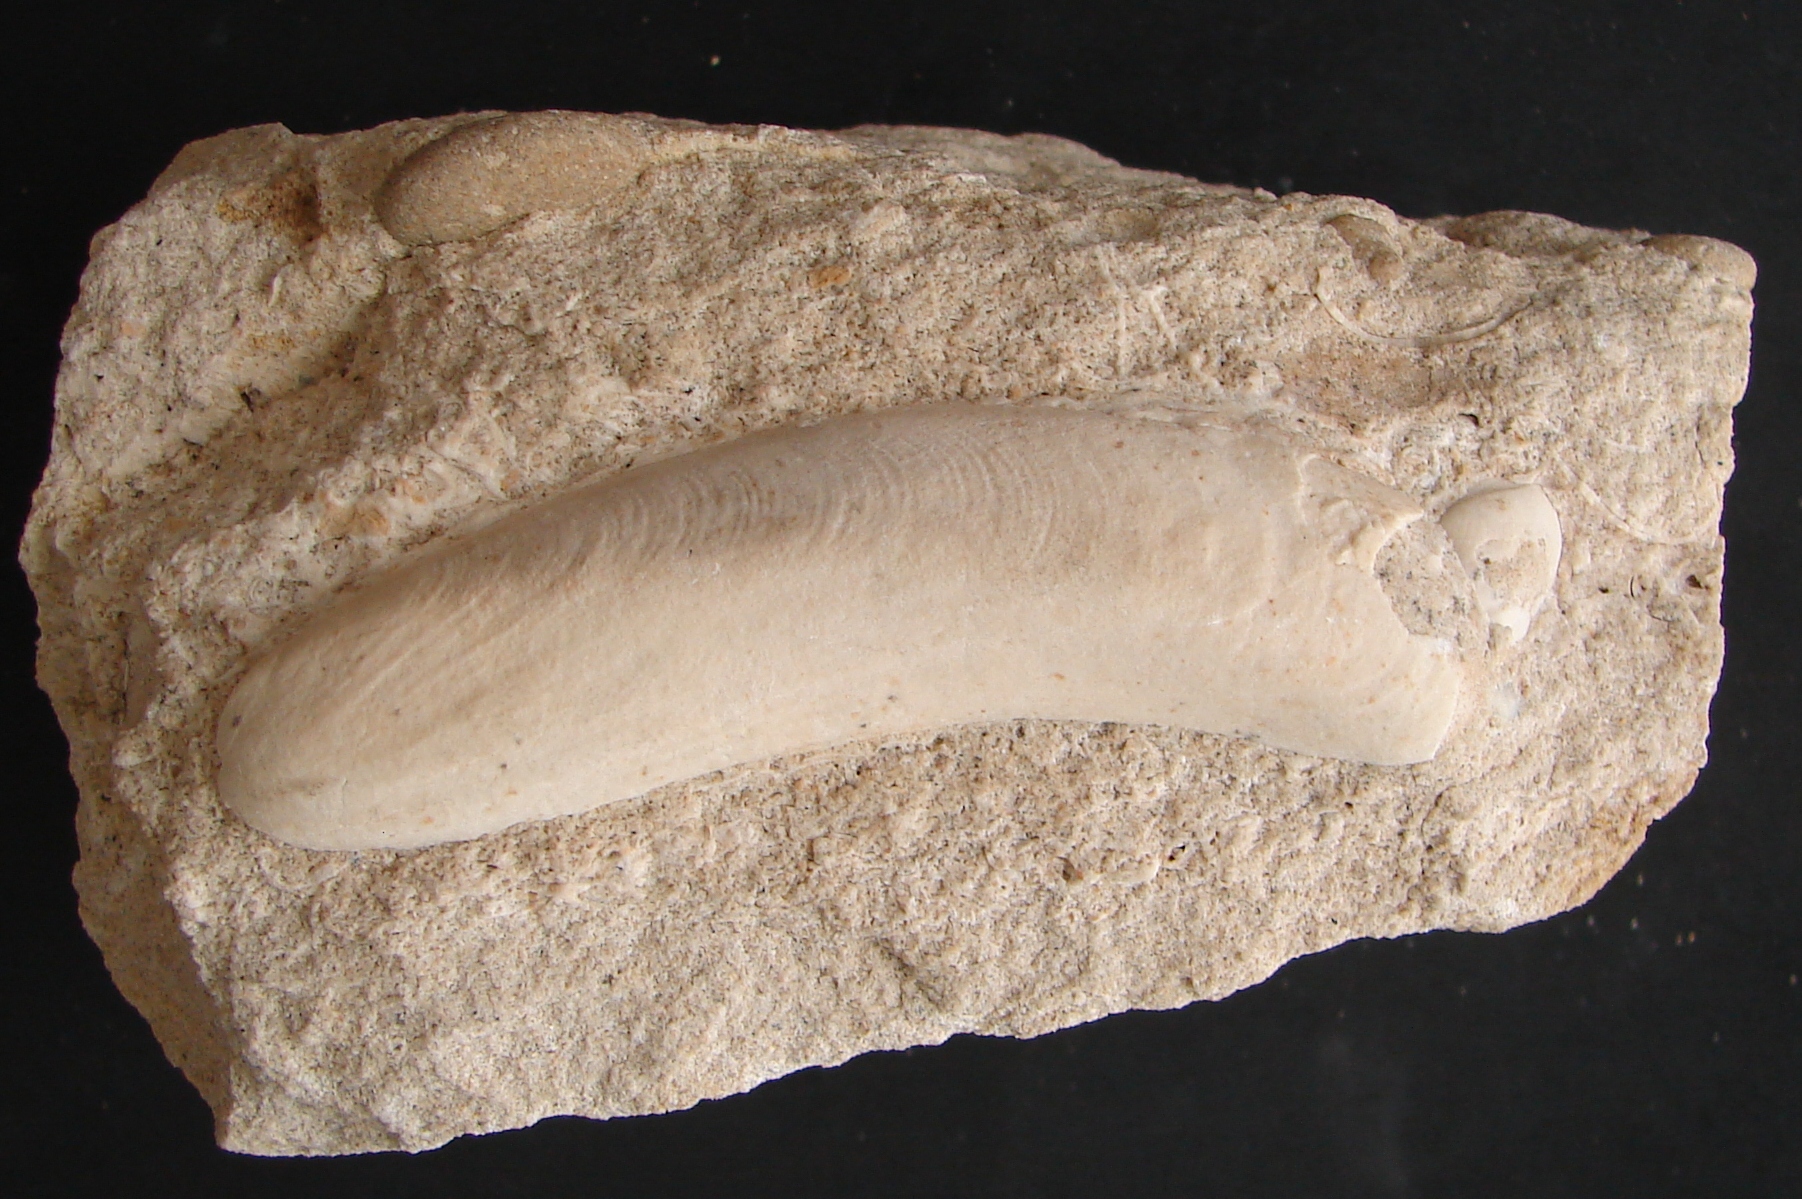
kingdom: Animalia
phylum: Mollusca
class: Bivalvia
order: Mytilida
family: Mytilidae
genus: Modiolus
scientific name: Modiolus
